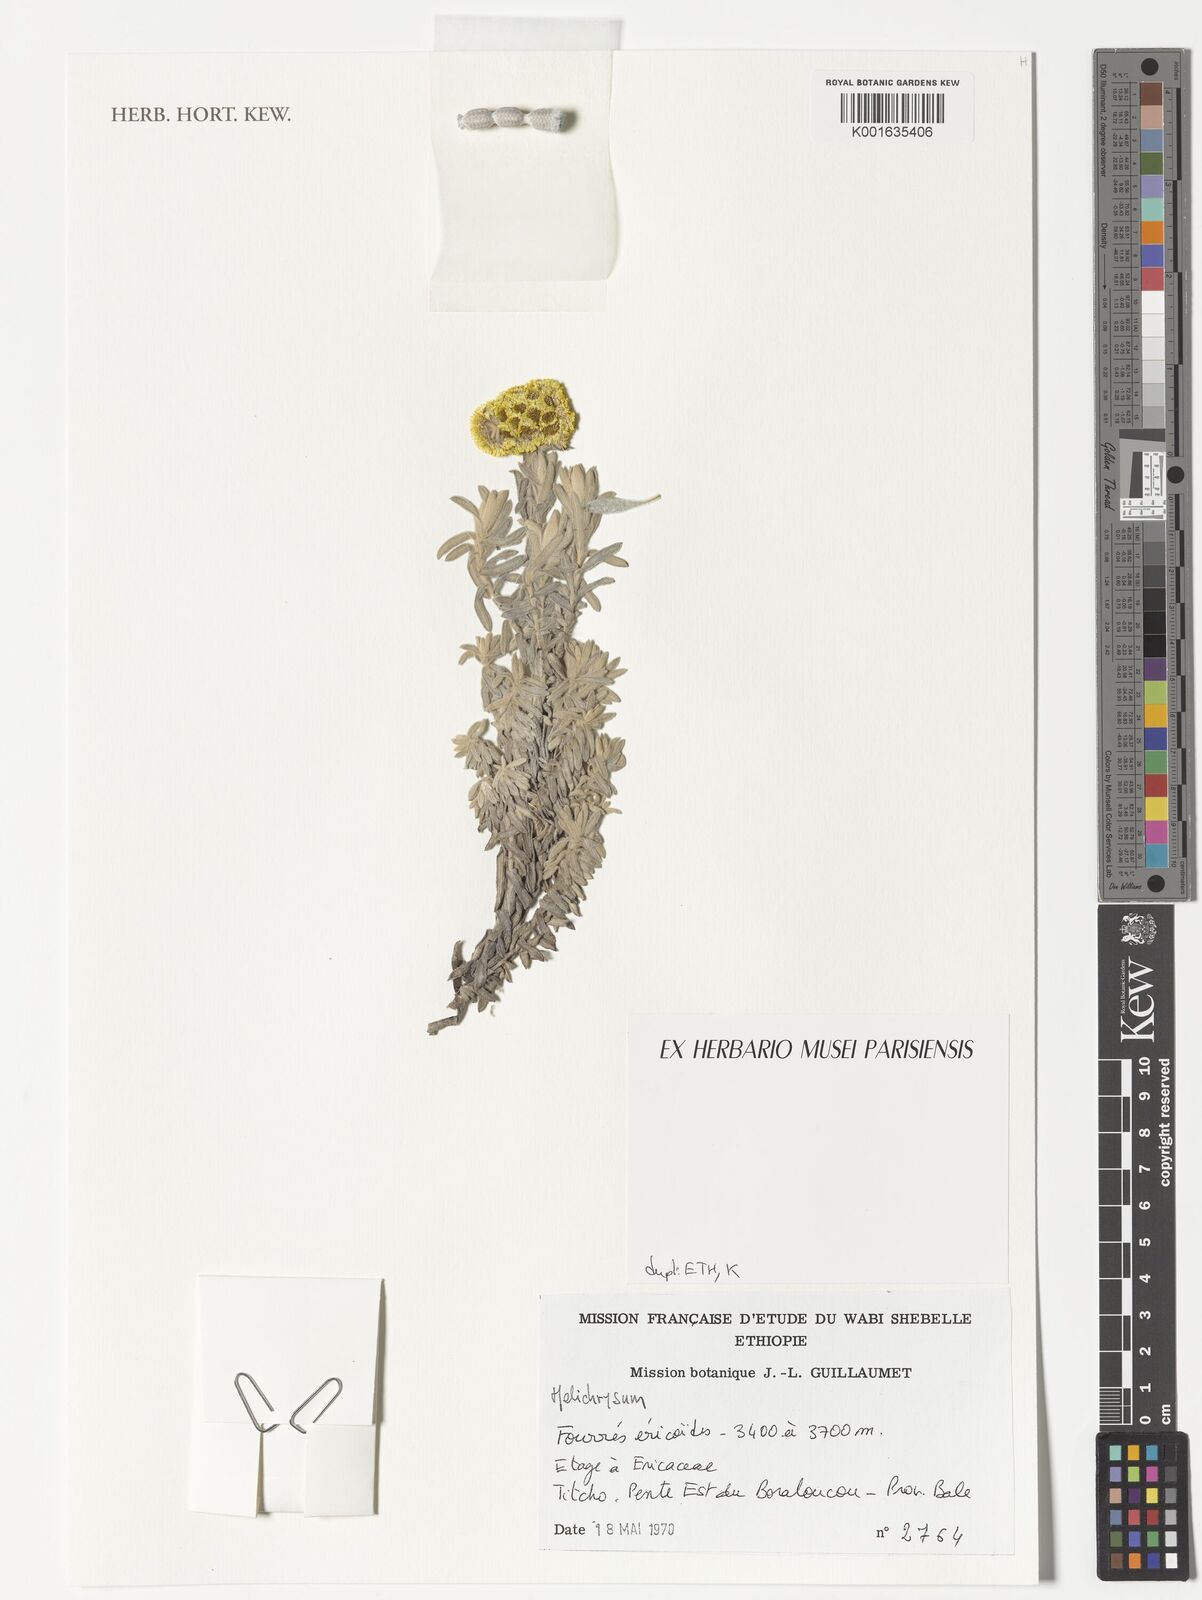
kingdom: Plantae
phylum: Tracheophyta
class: Magnoliopsida
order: Asterales
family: Asteraceae
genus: Helichrysum
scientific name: Helichrysum
